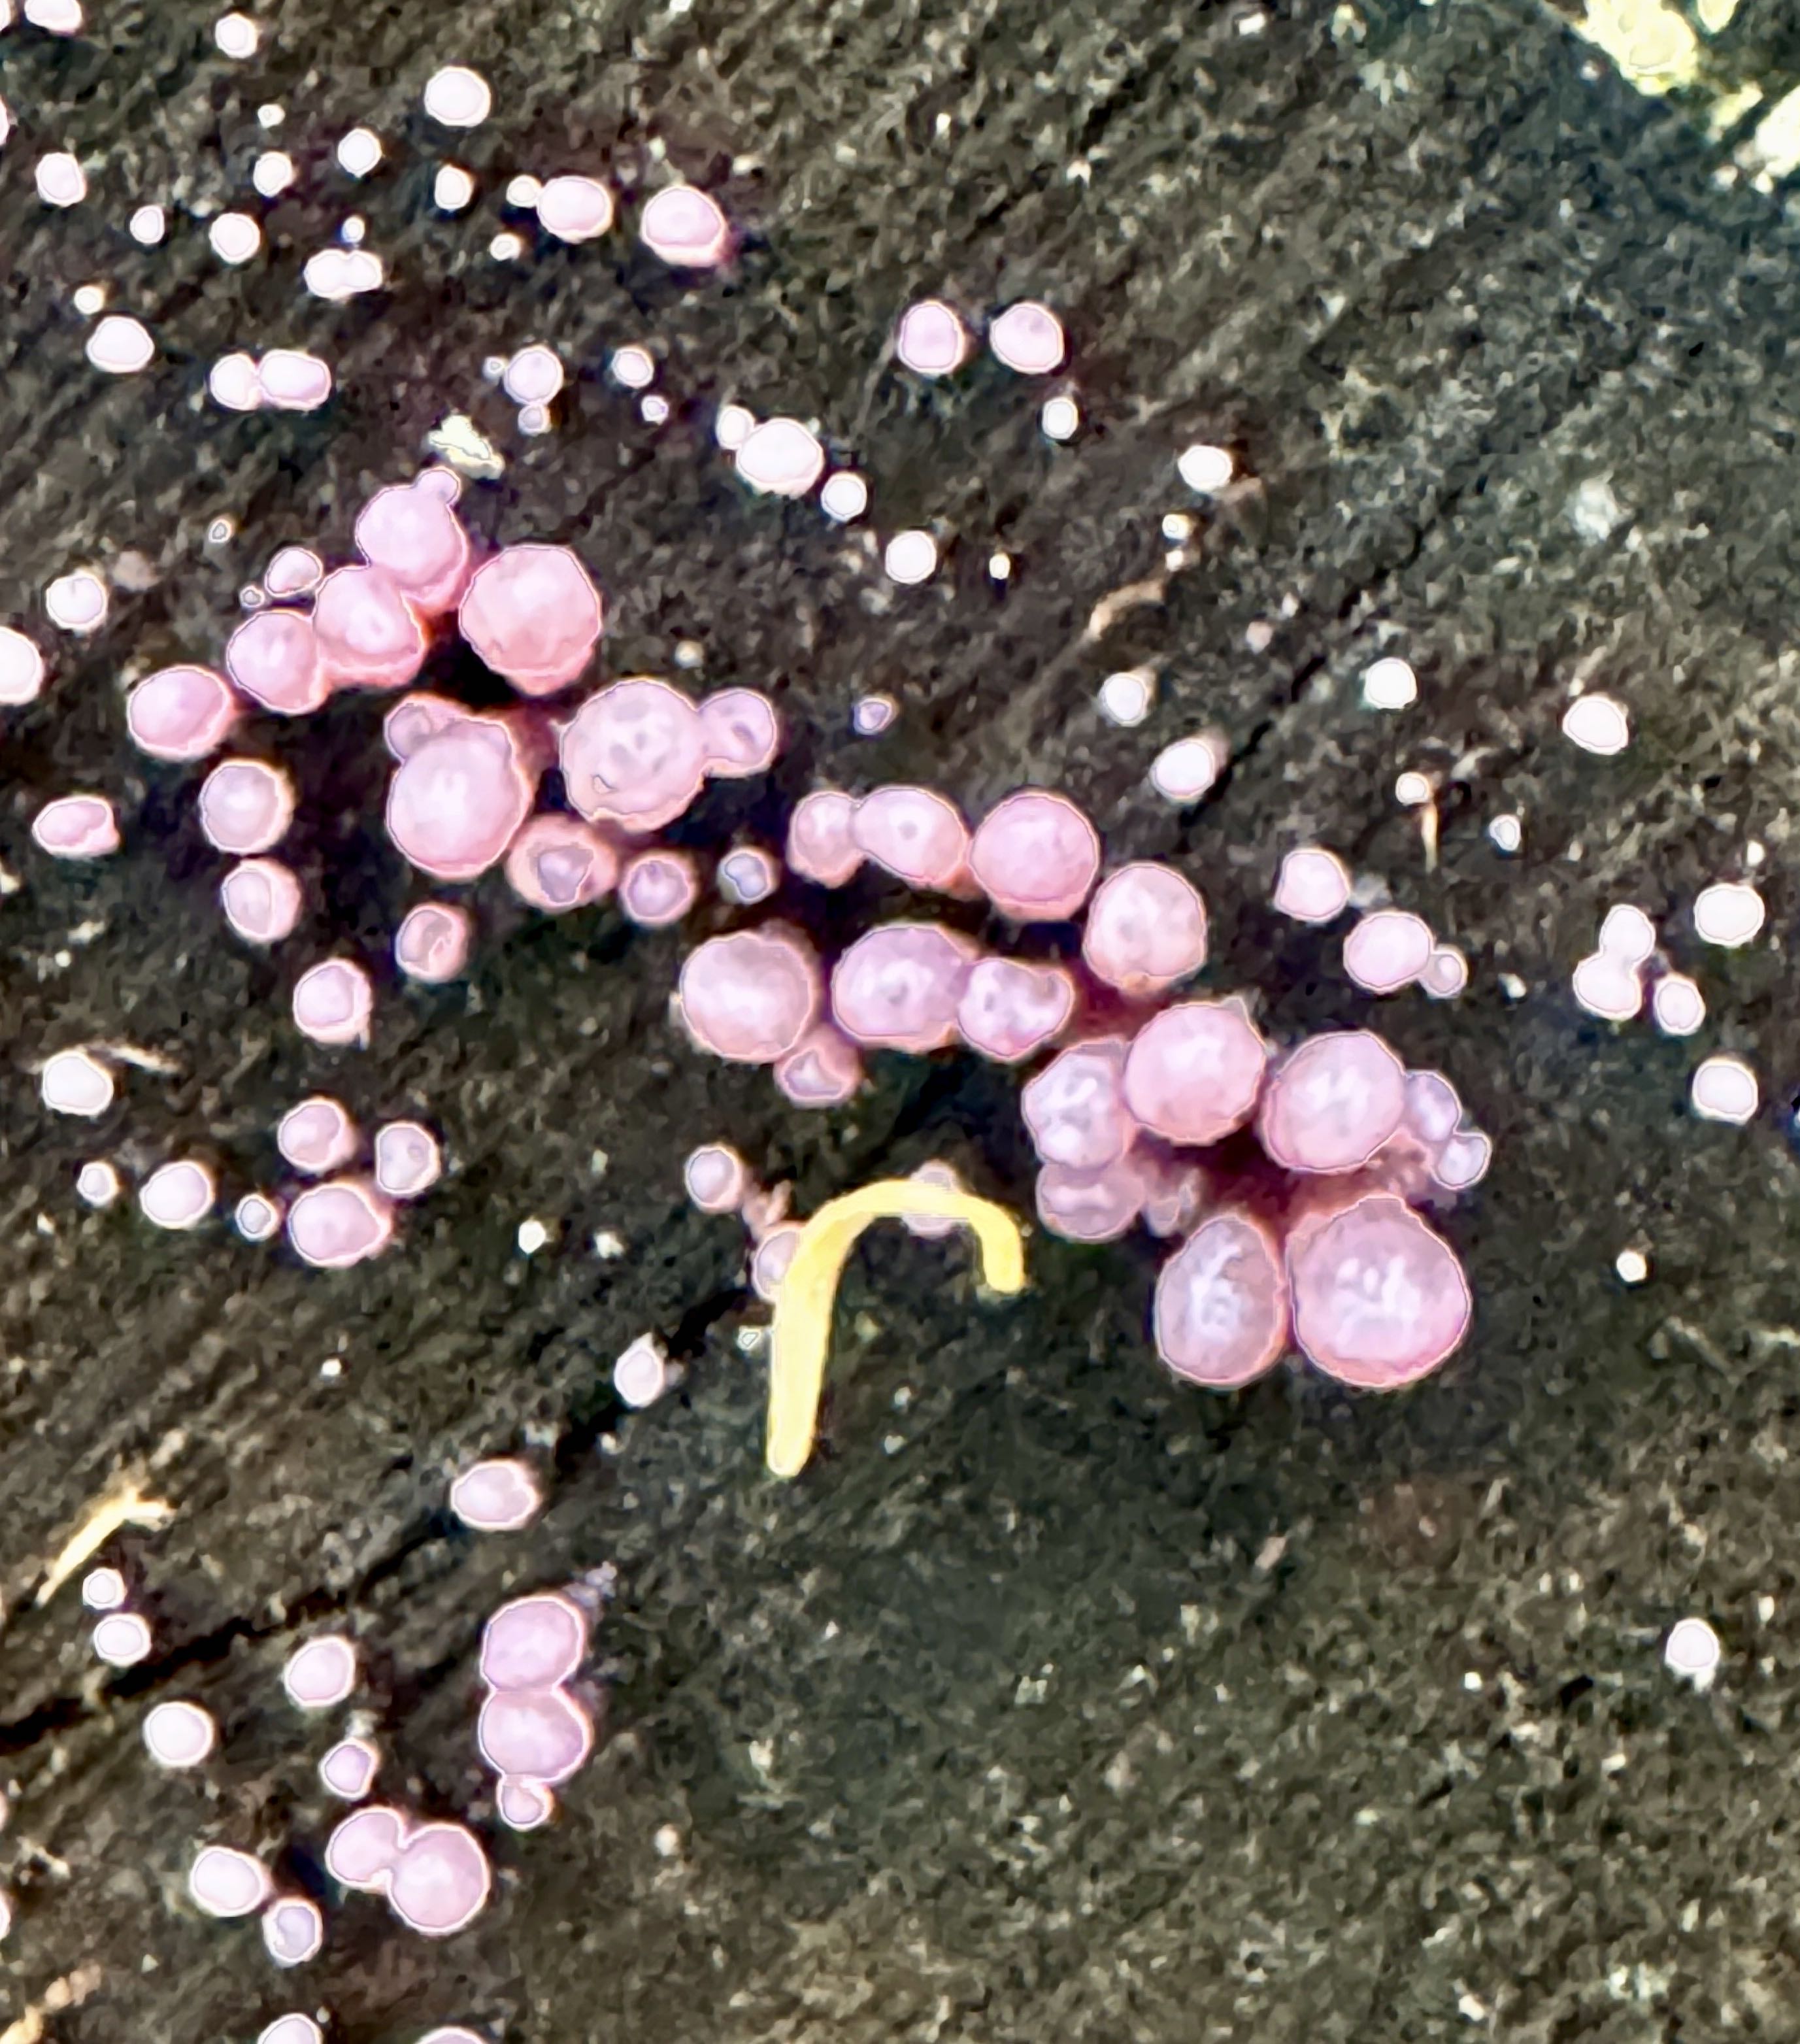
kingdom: Fungi
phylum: Ascomycota
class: Leotiomycetes
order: Helotiales
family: Gelatinodiscaceae
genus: Ascocoryne
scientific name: Ascocoryne sarcoides
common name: rødlilla sejskive
